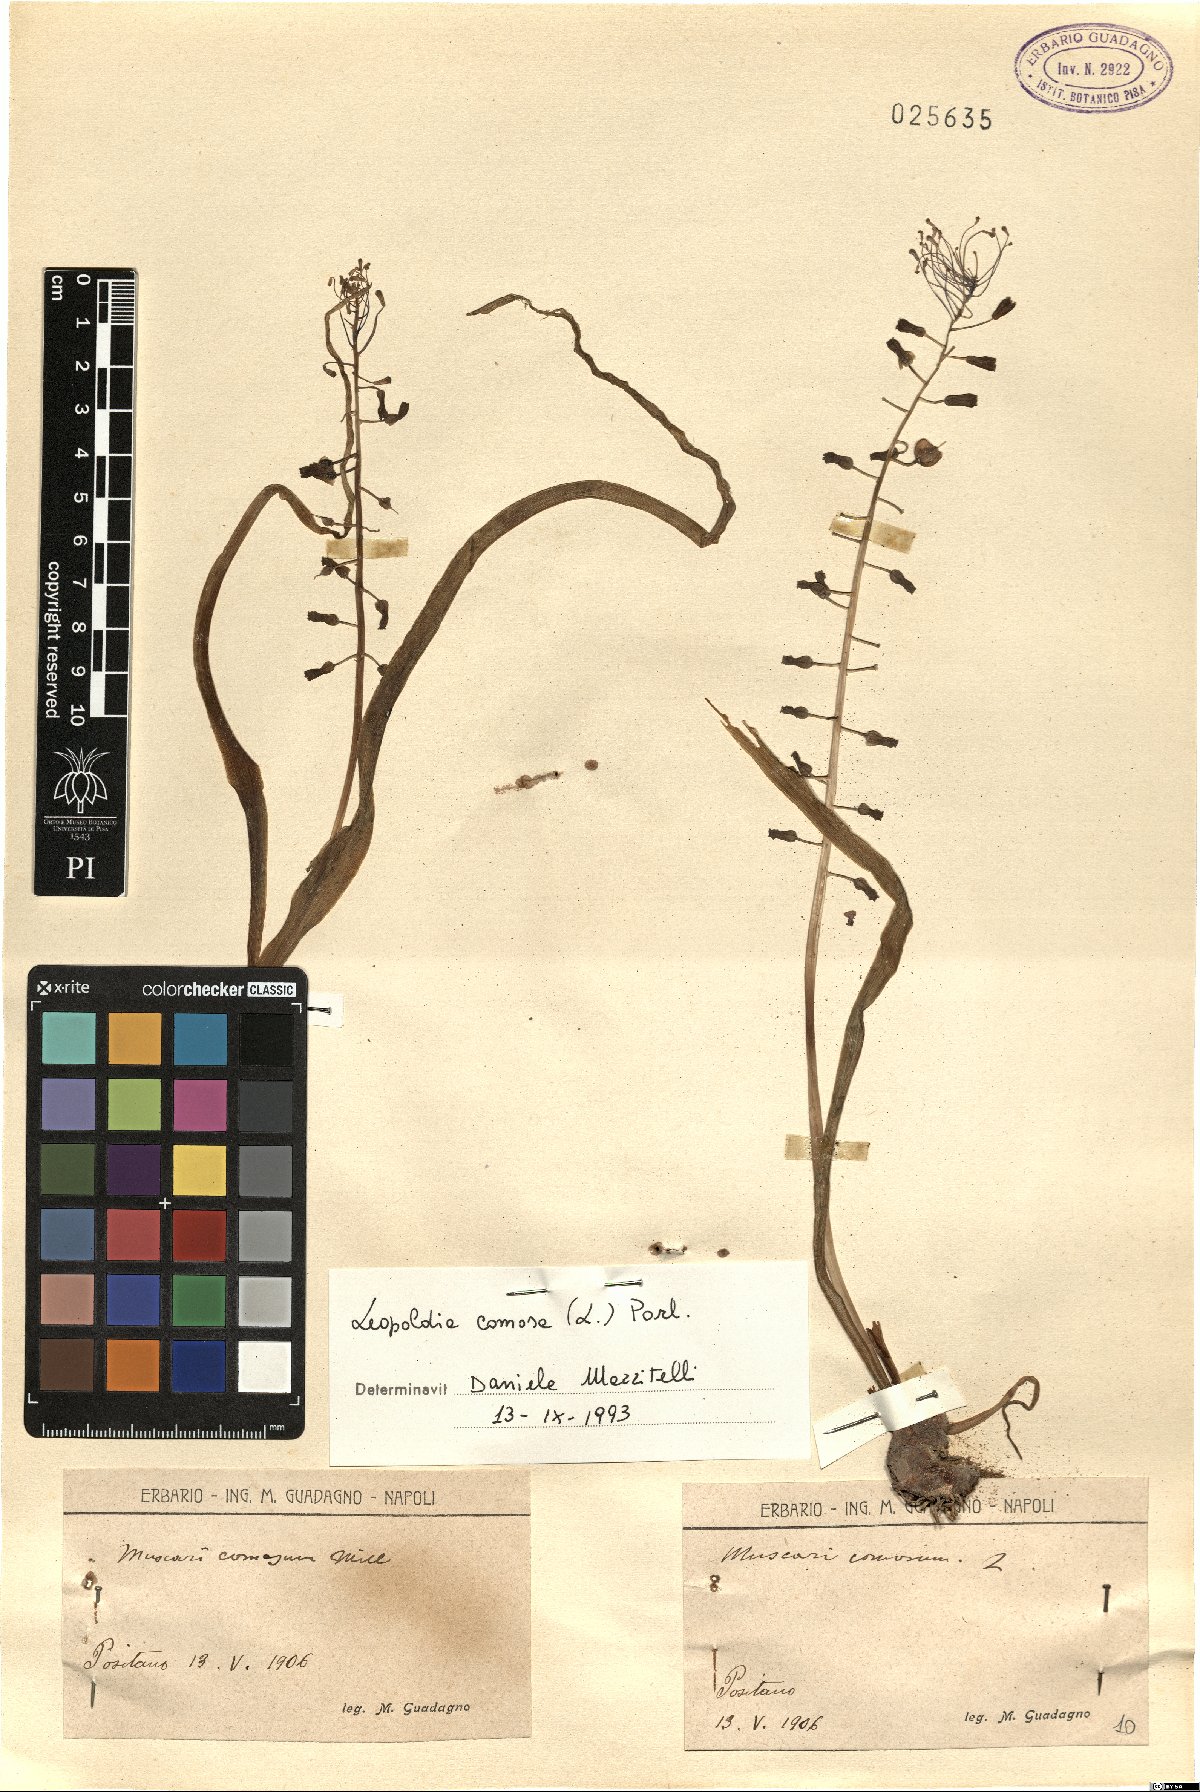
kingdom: Plantae
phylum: Tracheophyta
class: Liliopsida
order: Asparagales
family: Asparagaceae
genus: Muscari
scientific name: Muscari comosum
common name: Tassel hyacinth
